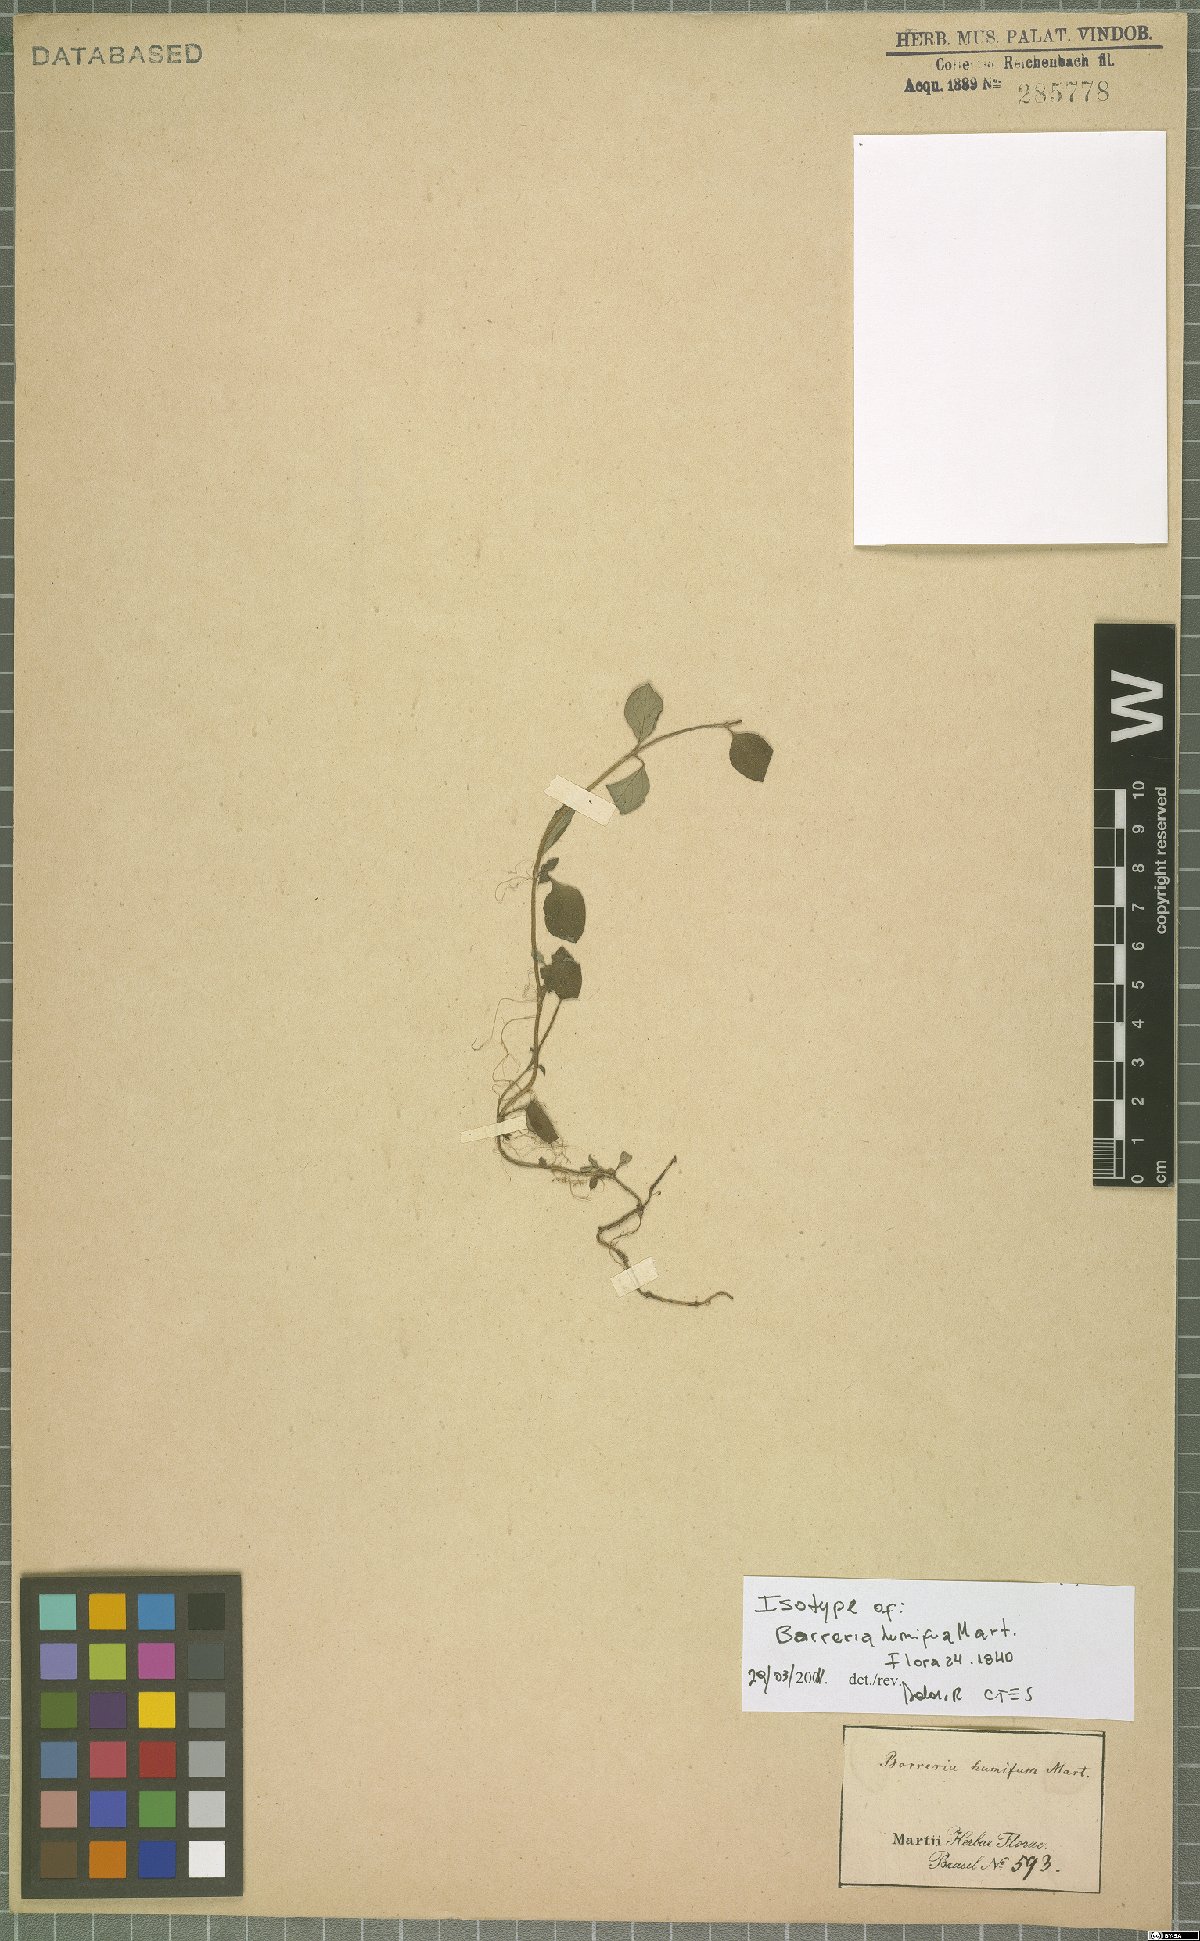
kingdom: Plantae
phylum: Tracheophyta
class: Magnoliopsida
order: Gentianales
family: Rubiaceae
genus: Spermacoce
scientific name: Spermacoce scabiosoides
